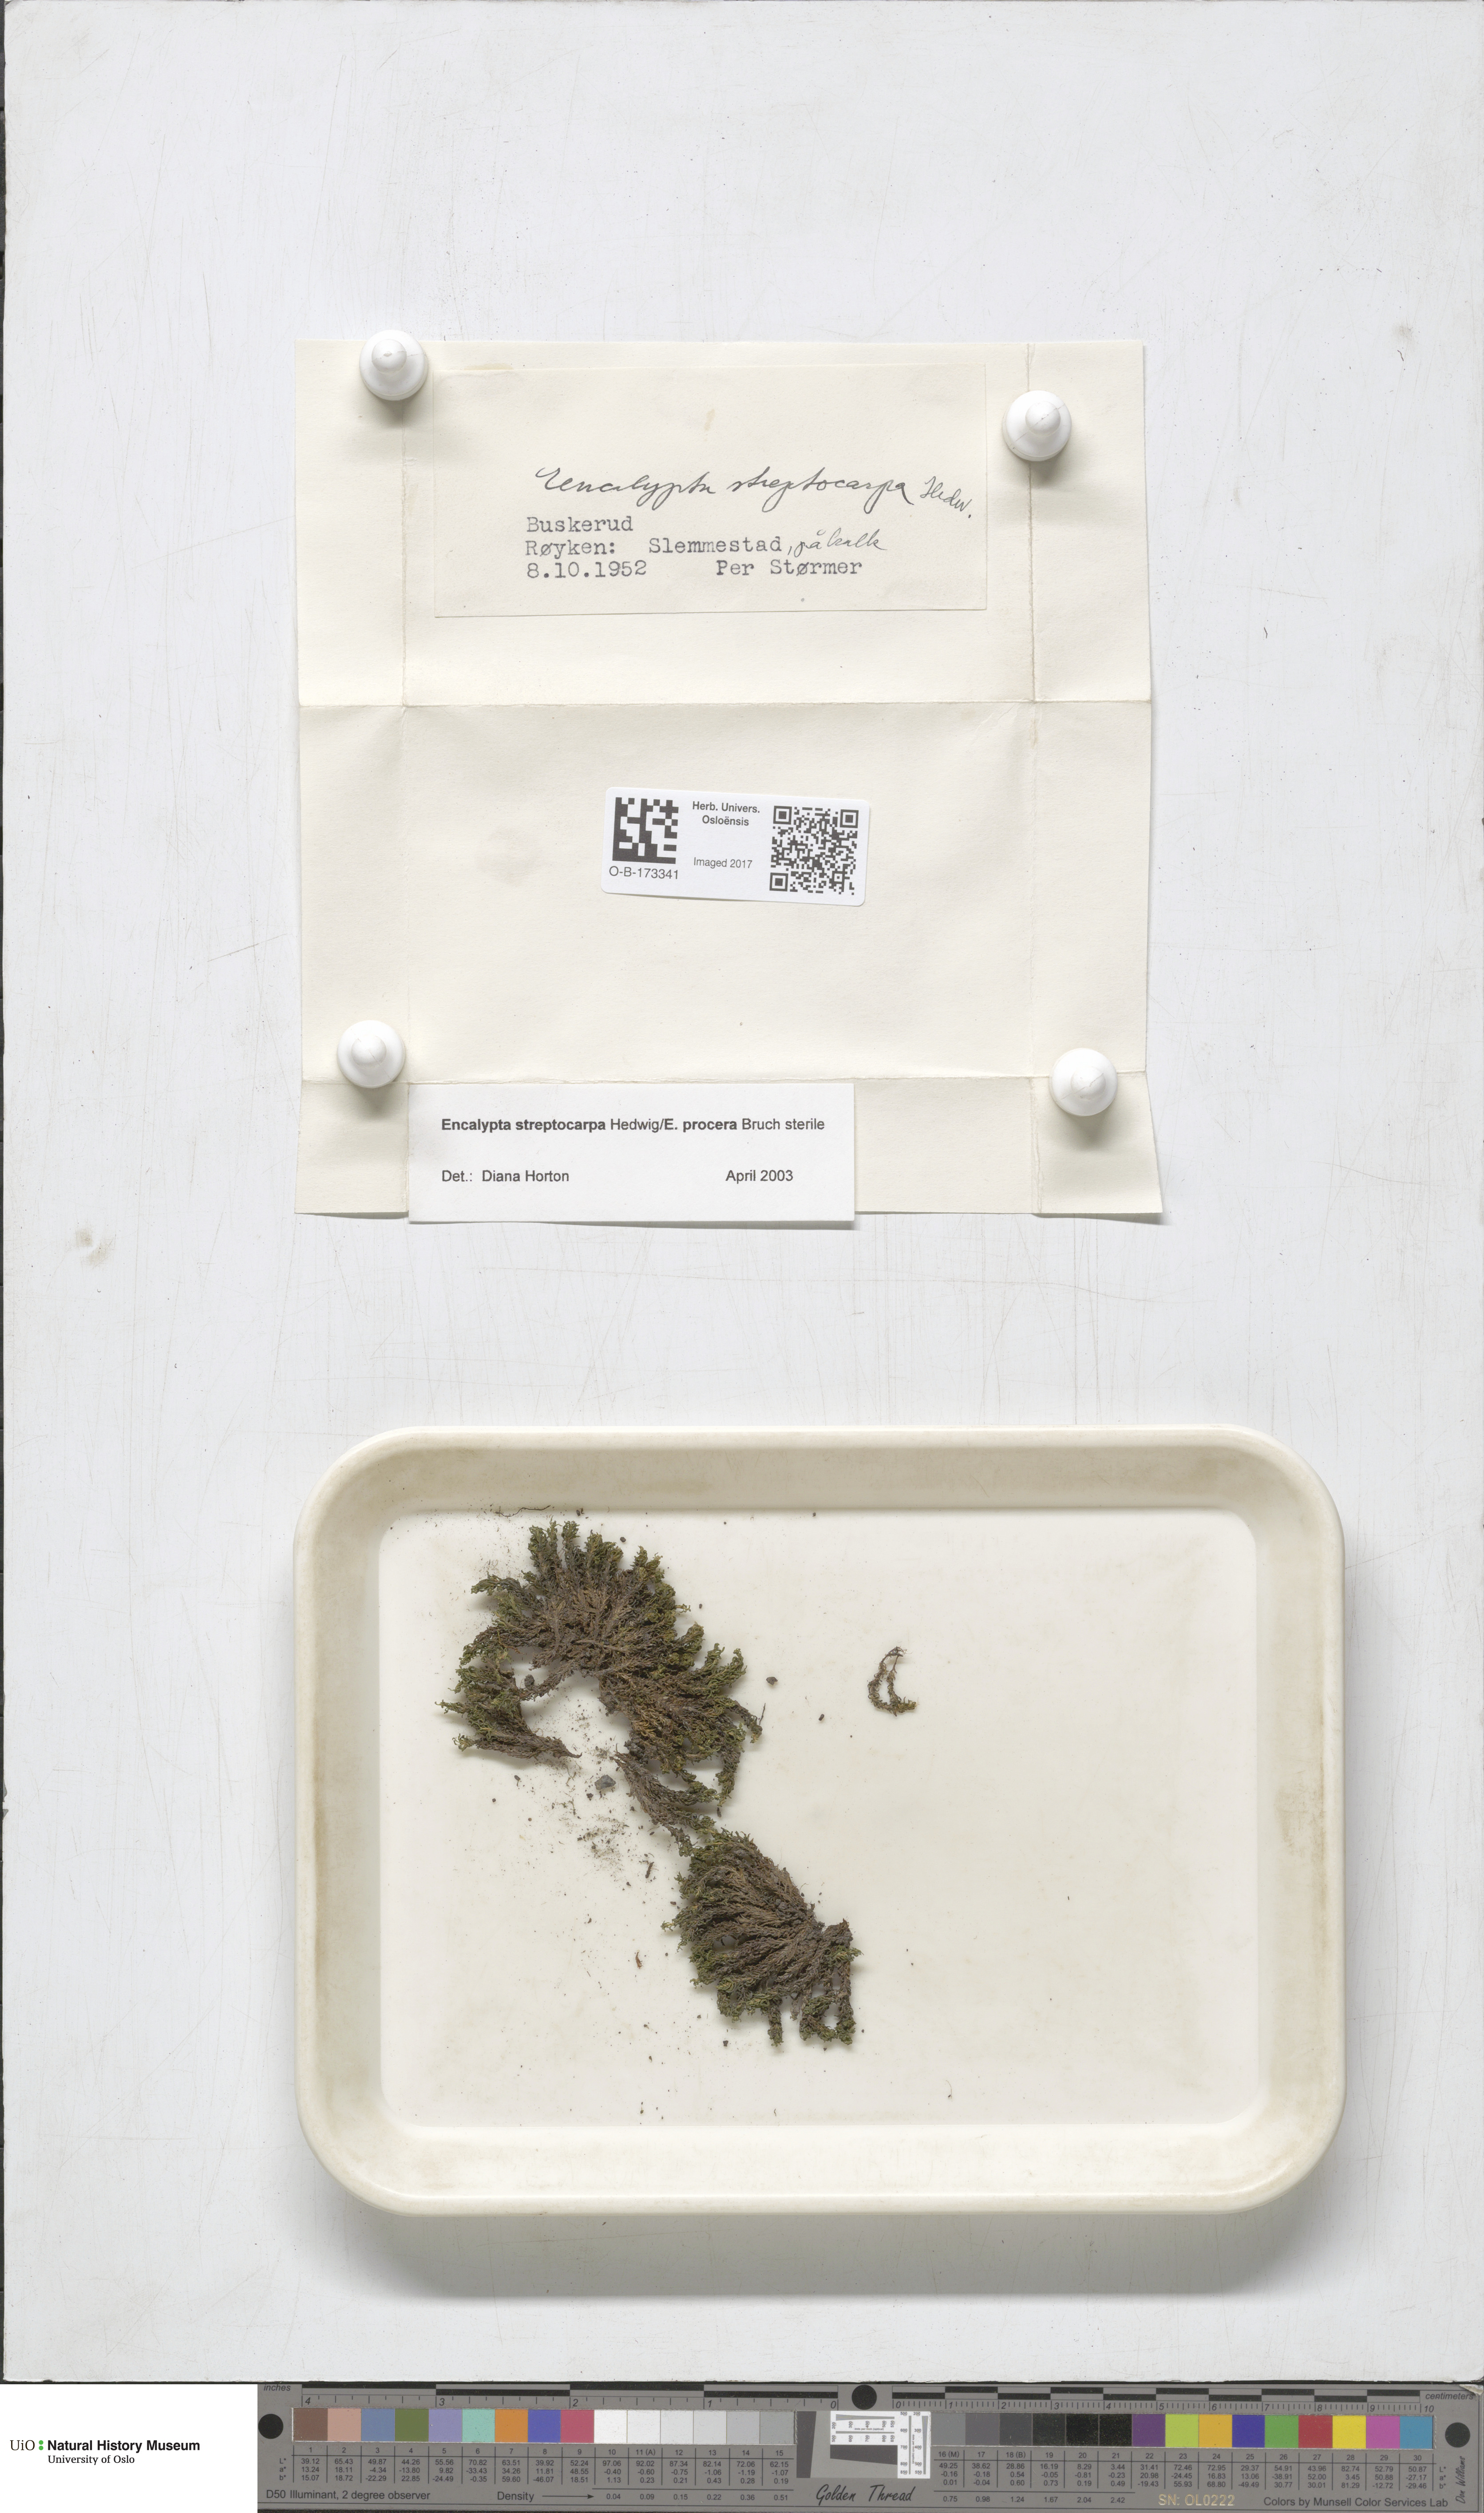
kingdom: Plantae
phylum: Bryophyta
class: Bryopsida
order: Encalyptales
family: Encalyptaceae
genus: Encalypta
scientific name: Encalypta streptocarpa
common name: Spiral extinguisher-moss
